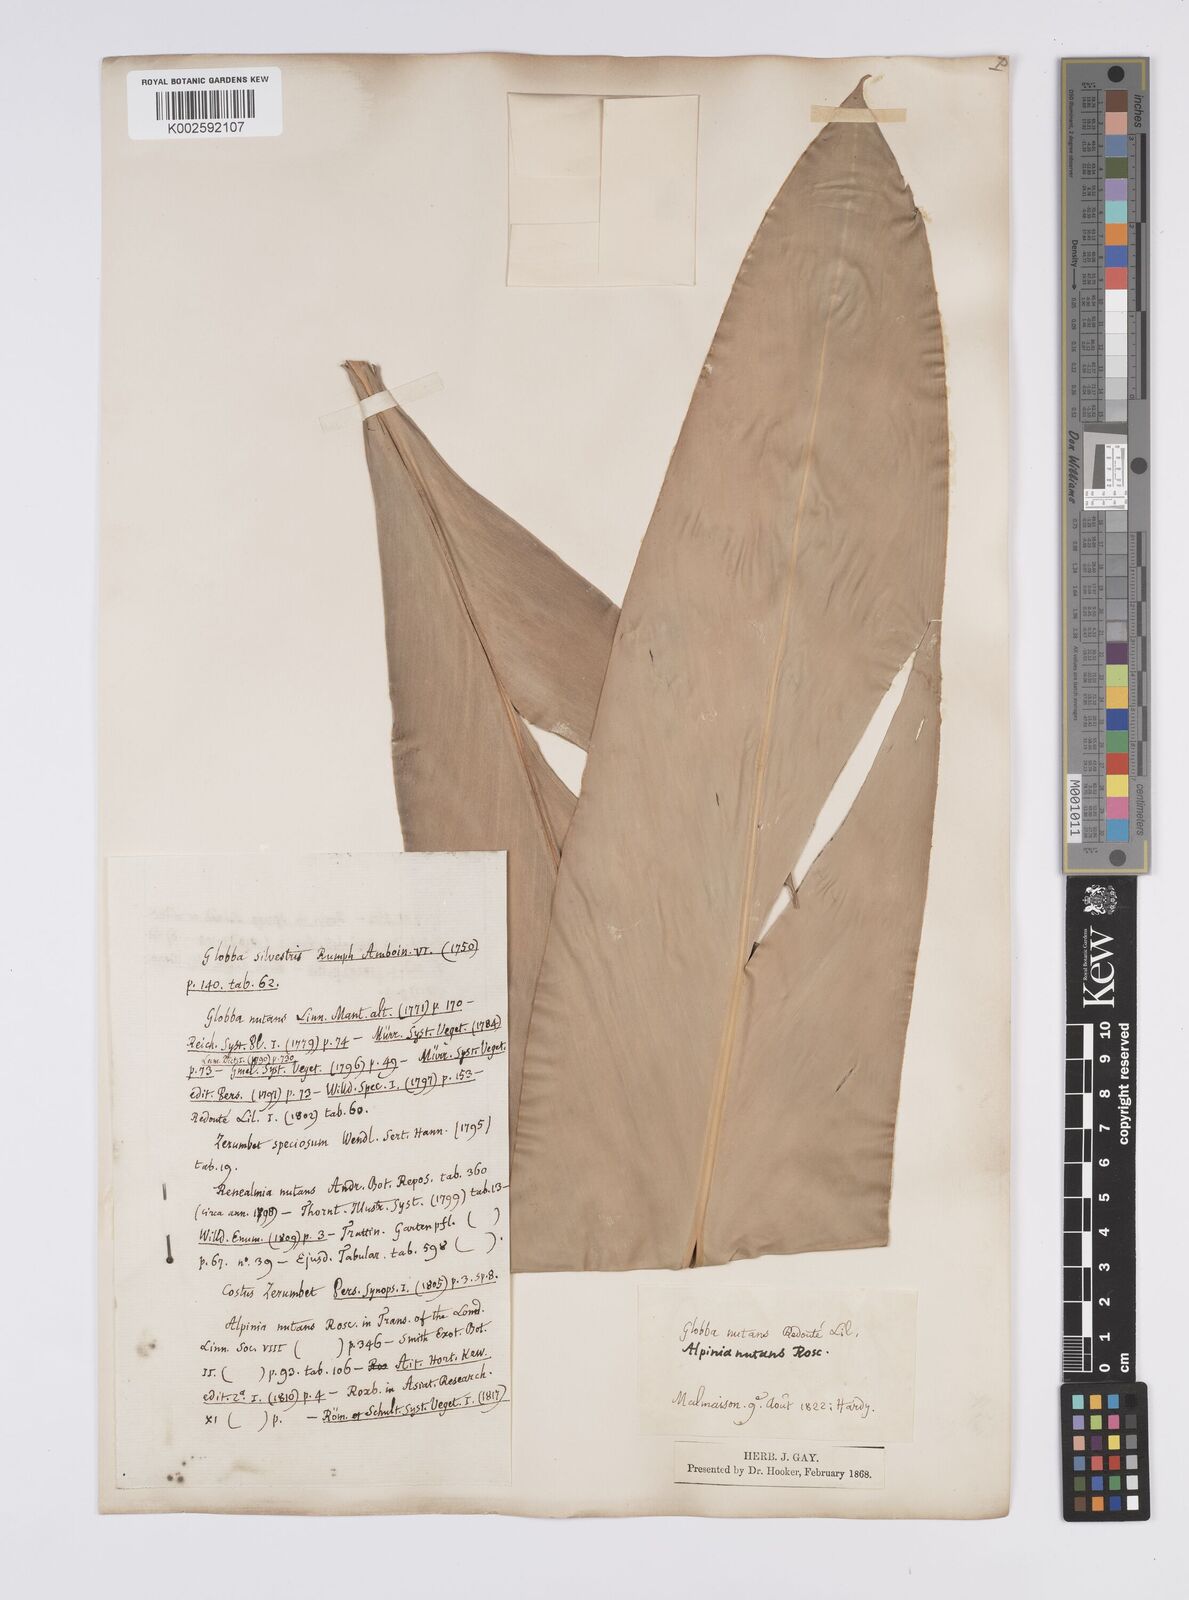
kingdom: Plantae
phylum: Tracheophyta
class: Liliopsida
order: Zingiberales
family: Zingiberaceae
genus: Alpinia
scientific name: Alpinia
